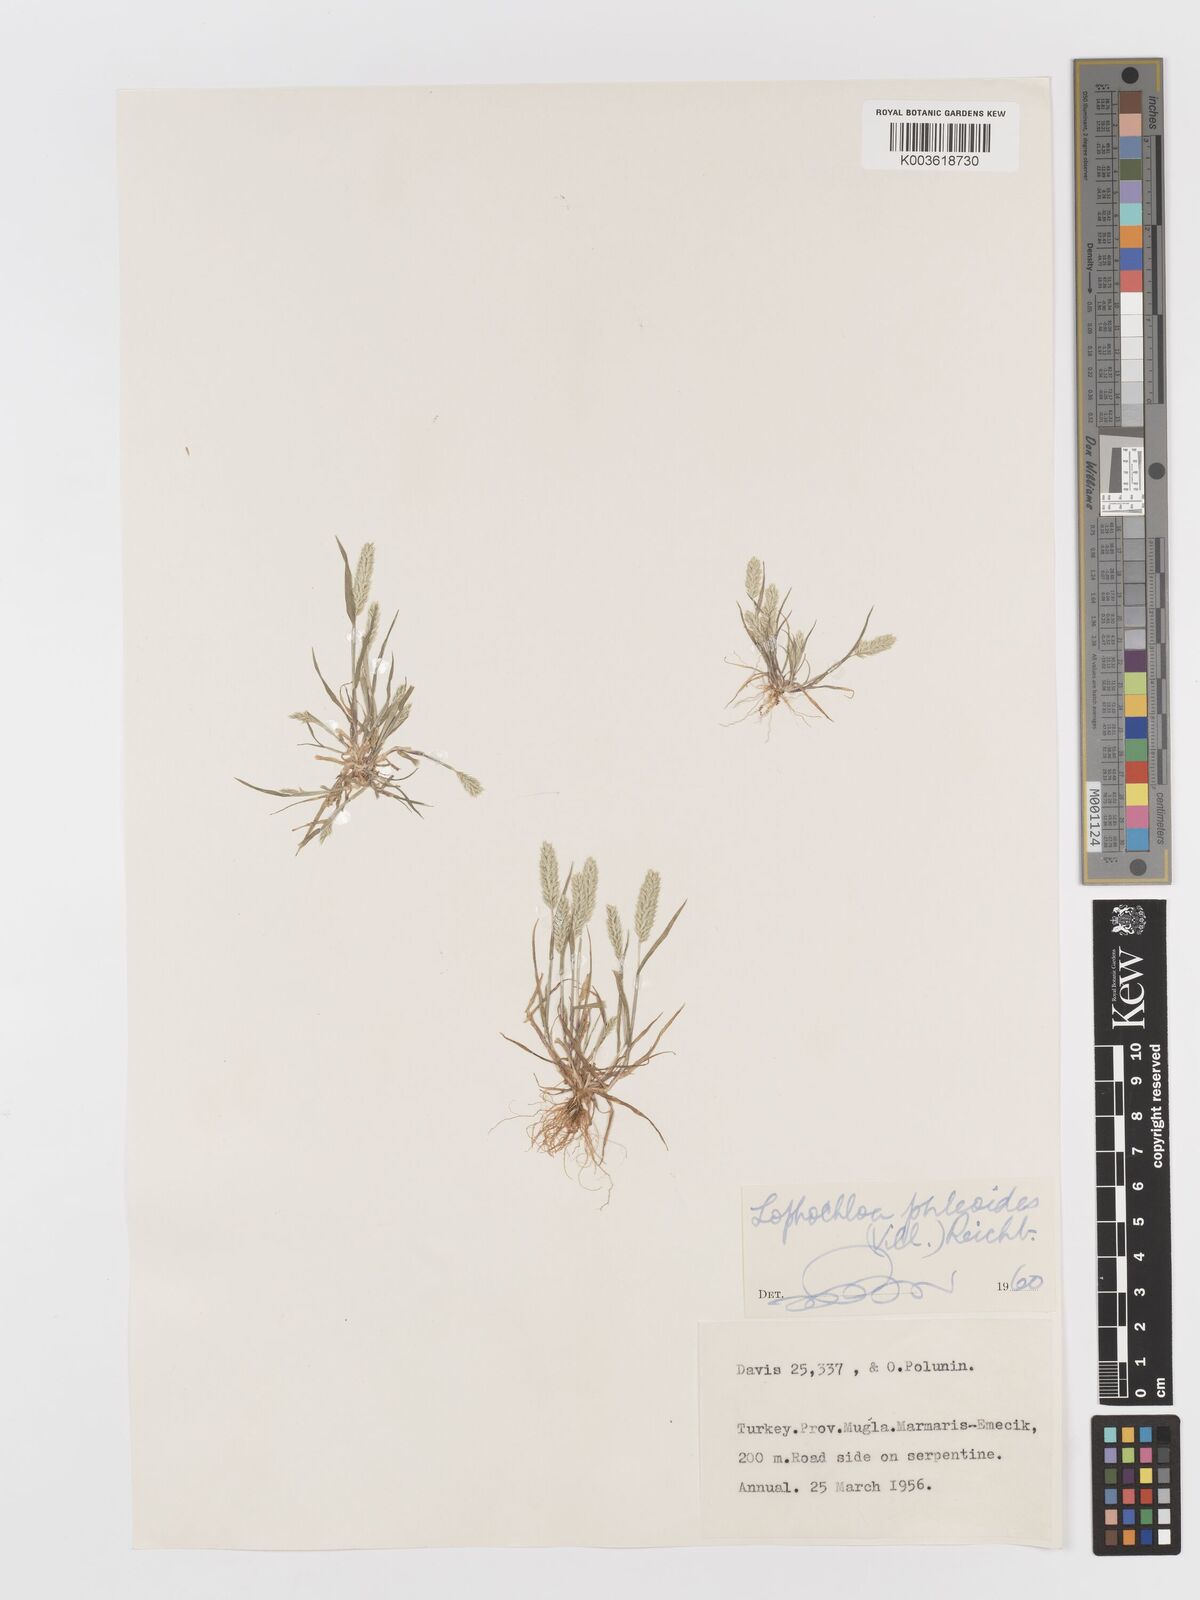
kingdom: Plantae
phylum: Tracheophyta
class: Liliopsida
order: Poales
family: Poaceae
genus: Rostraria
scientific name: Rostraria cristata
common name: Mediterranean hair-grass
